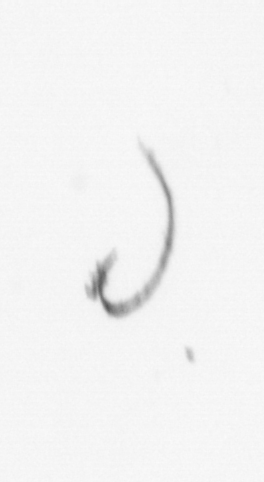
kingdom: Chromista
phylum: Ochrophyta
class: Bacillariophyceae
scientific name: Bacillariophyceae
